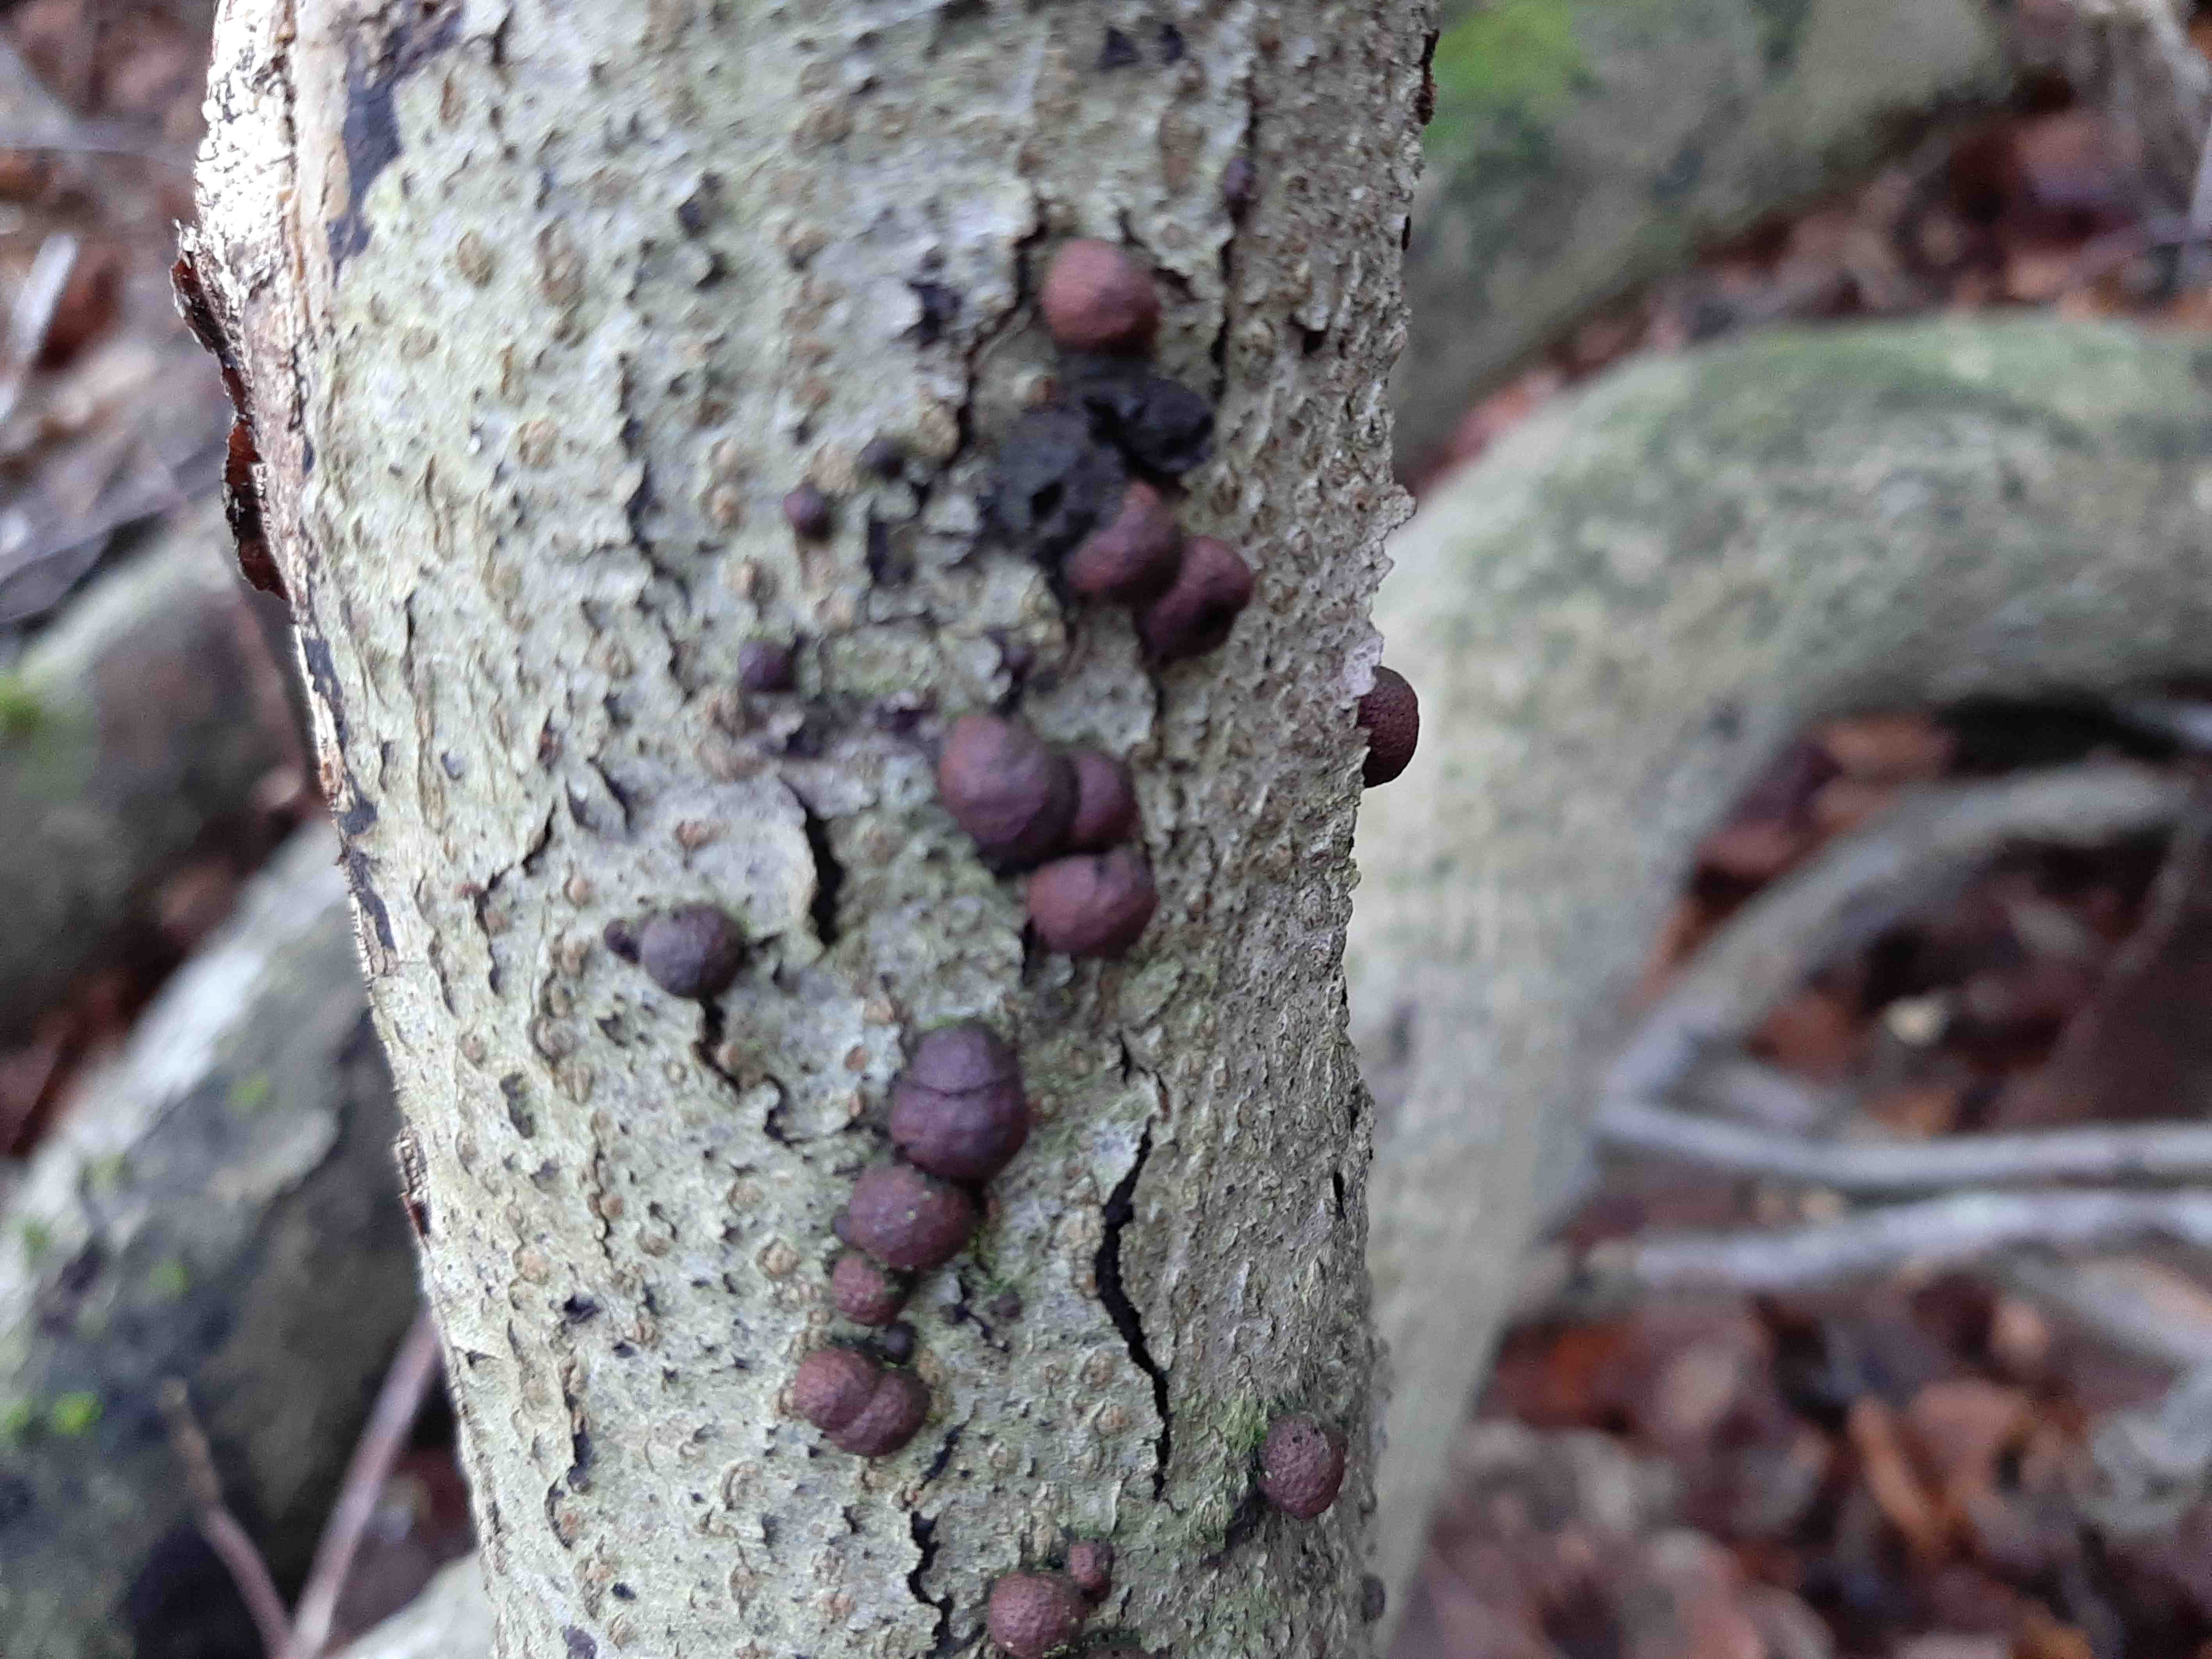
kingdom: Fungi
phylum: Ascomycota
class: Sordariomycetes
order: Xylariales
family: Hypoxylaceae
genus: Hypoxylon
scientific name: Hypoxylon fragiforme
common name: kuljordbær
